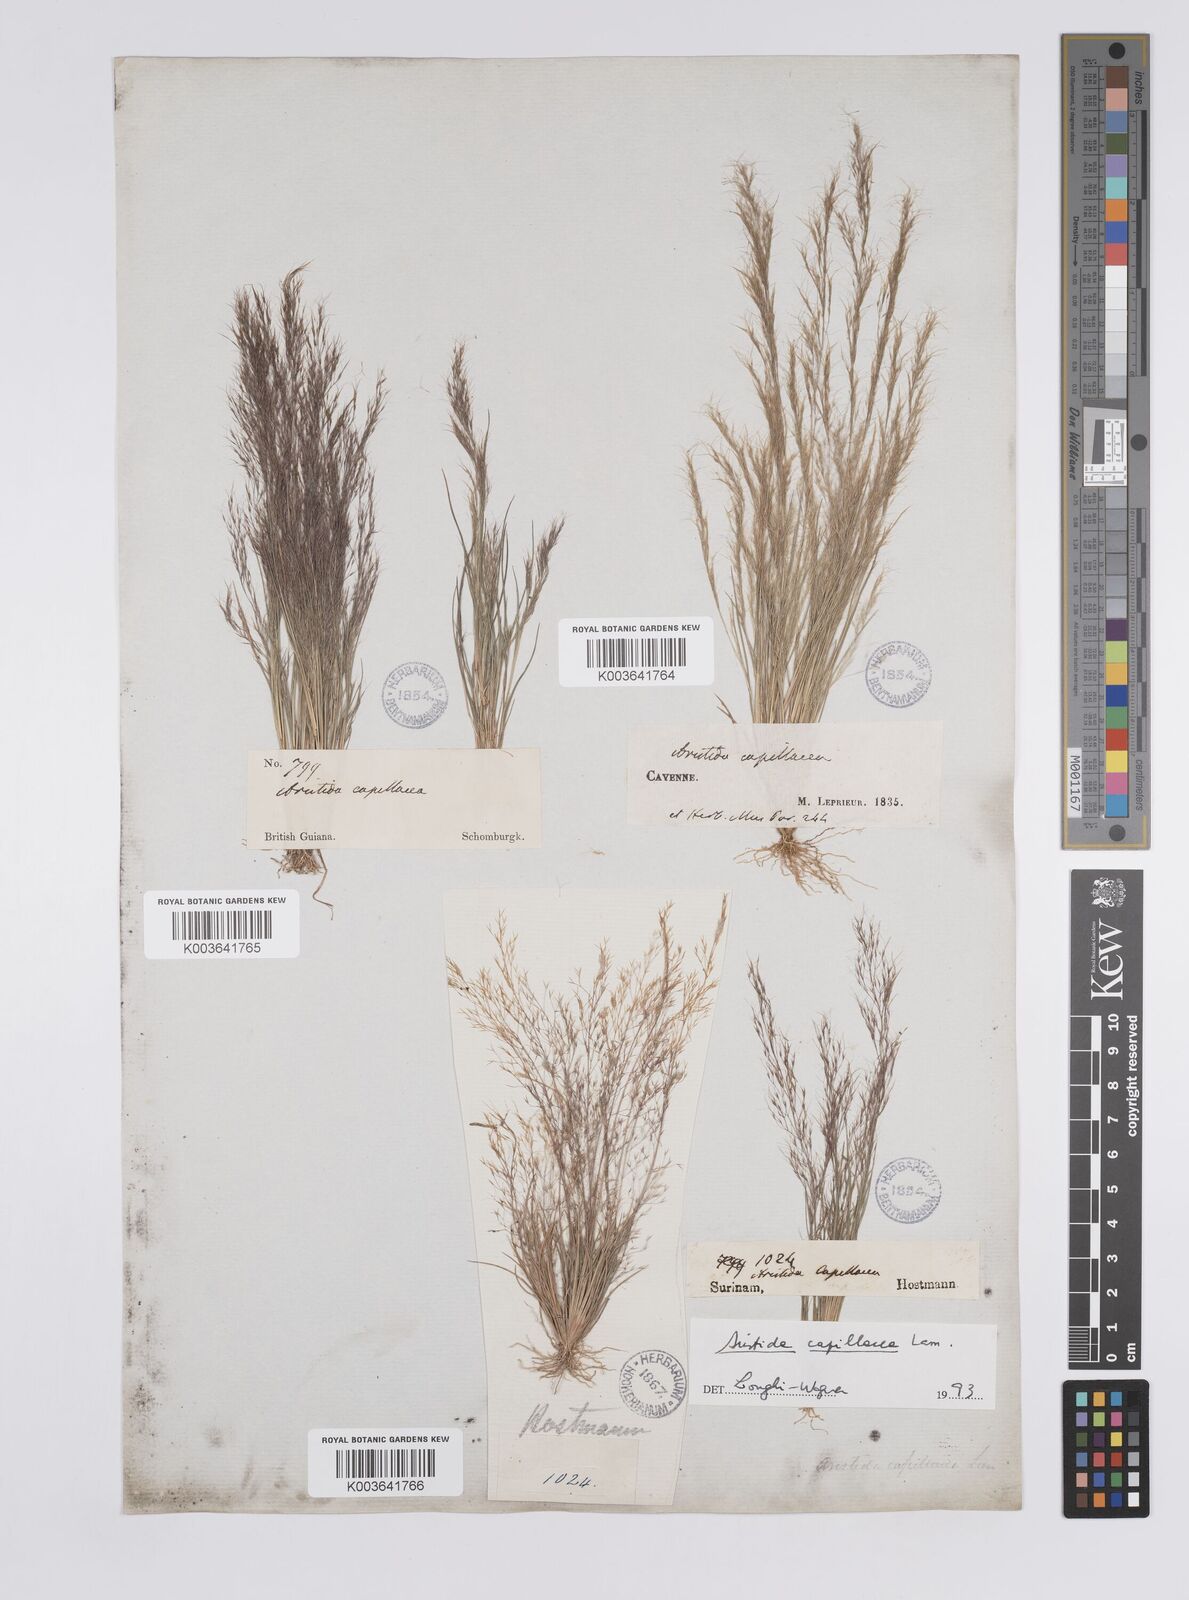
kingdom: Plantae
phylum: Tracheophyta
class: Liliopsida
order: Poales
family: Poaceae
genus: Aristida
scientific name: Aristida capillacea
